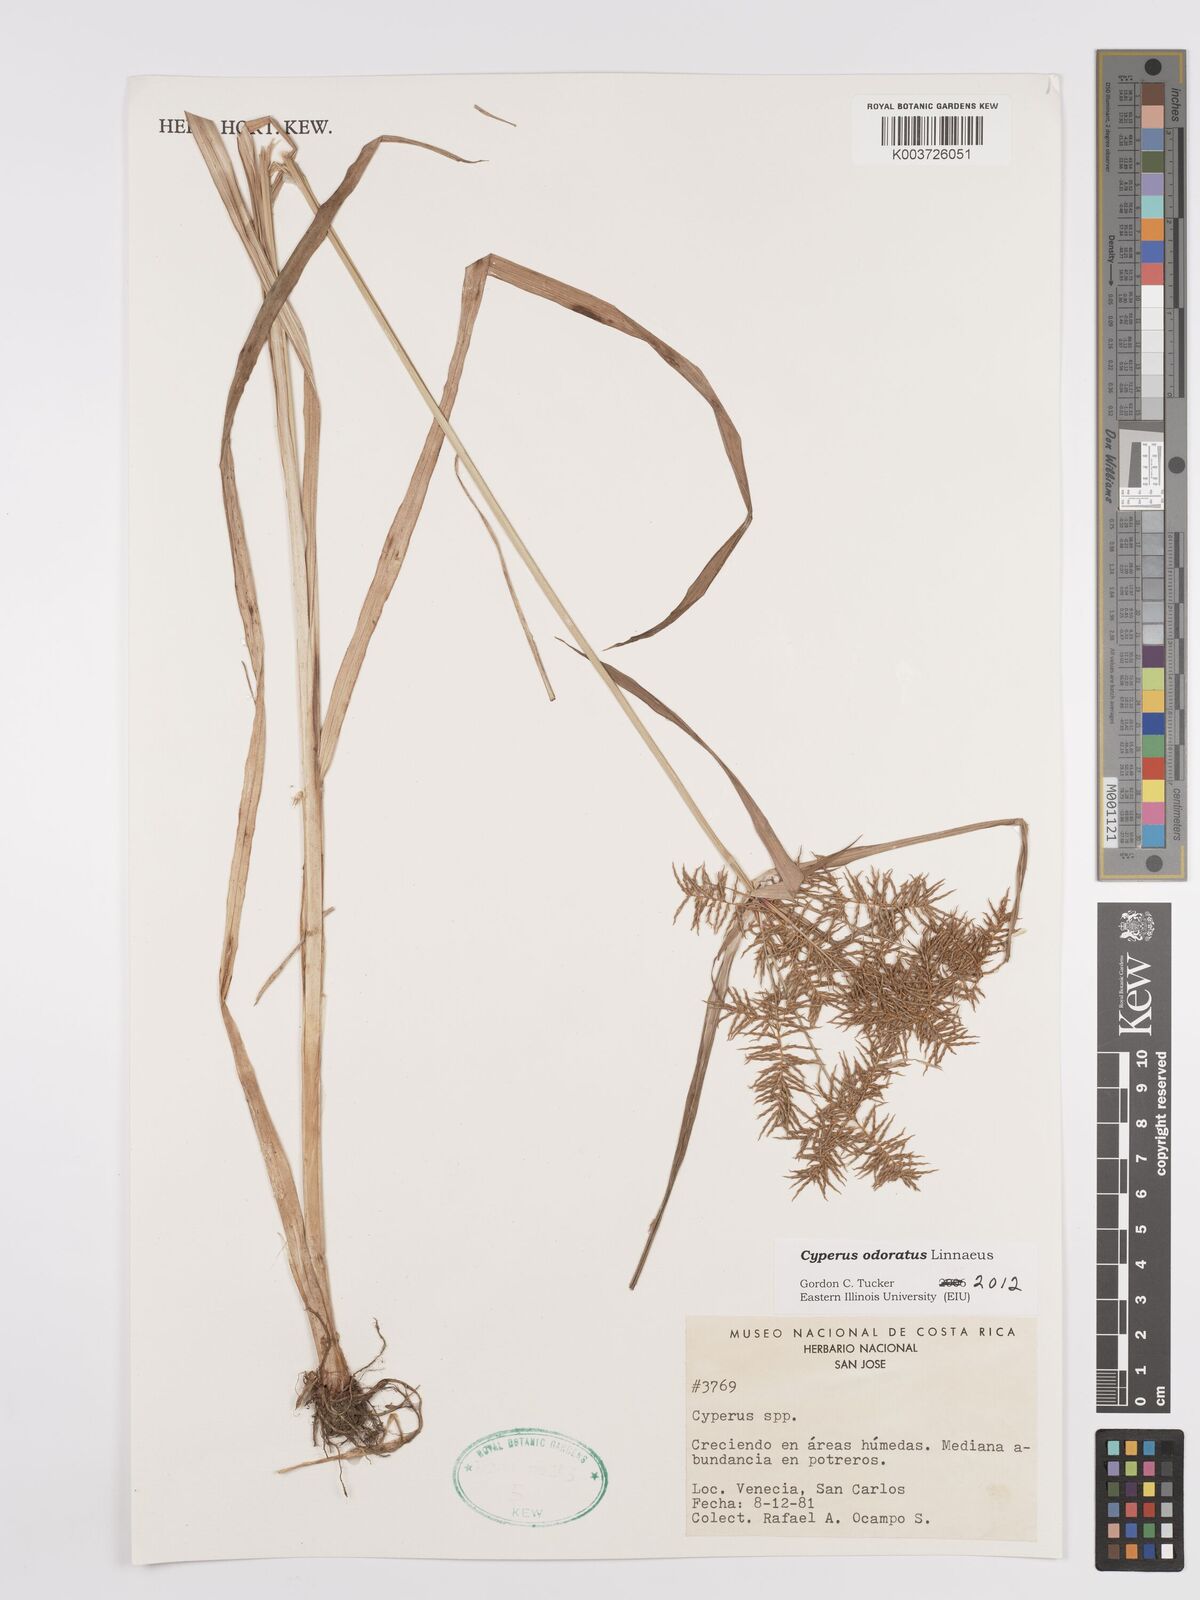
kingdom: Plantae
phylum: Tracheophyta
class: Liliopsida
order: Poales
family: Cyperaceae
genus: Cyperus
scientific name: Cyperus odoratus
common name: Fragrant flatsedge
